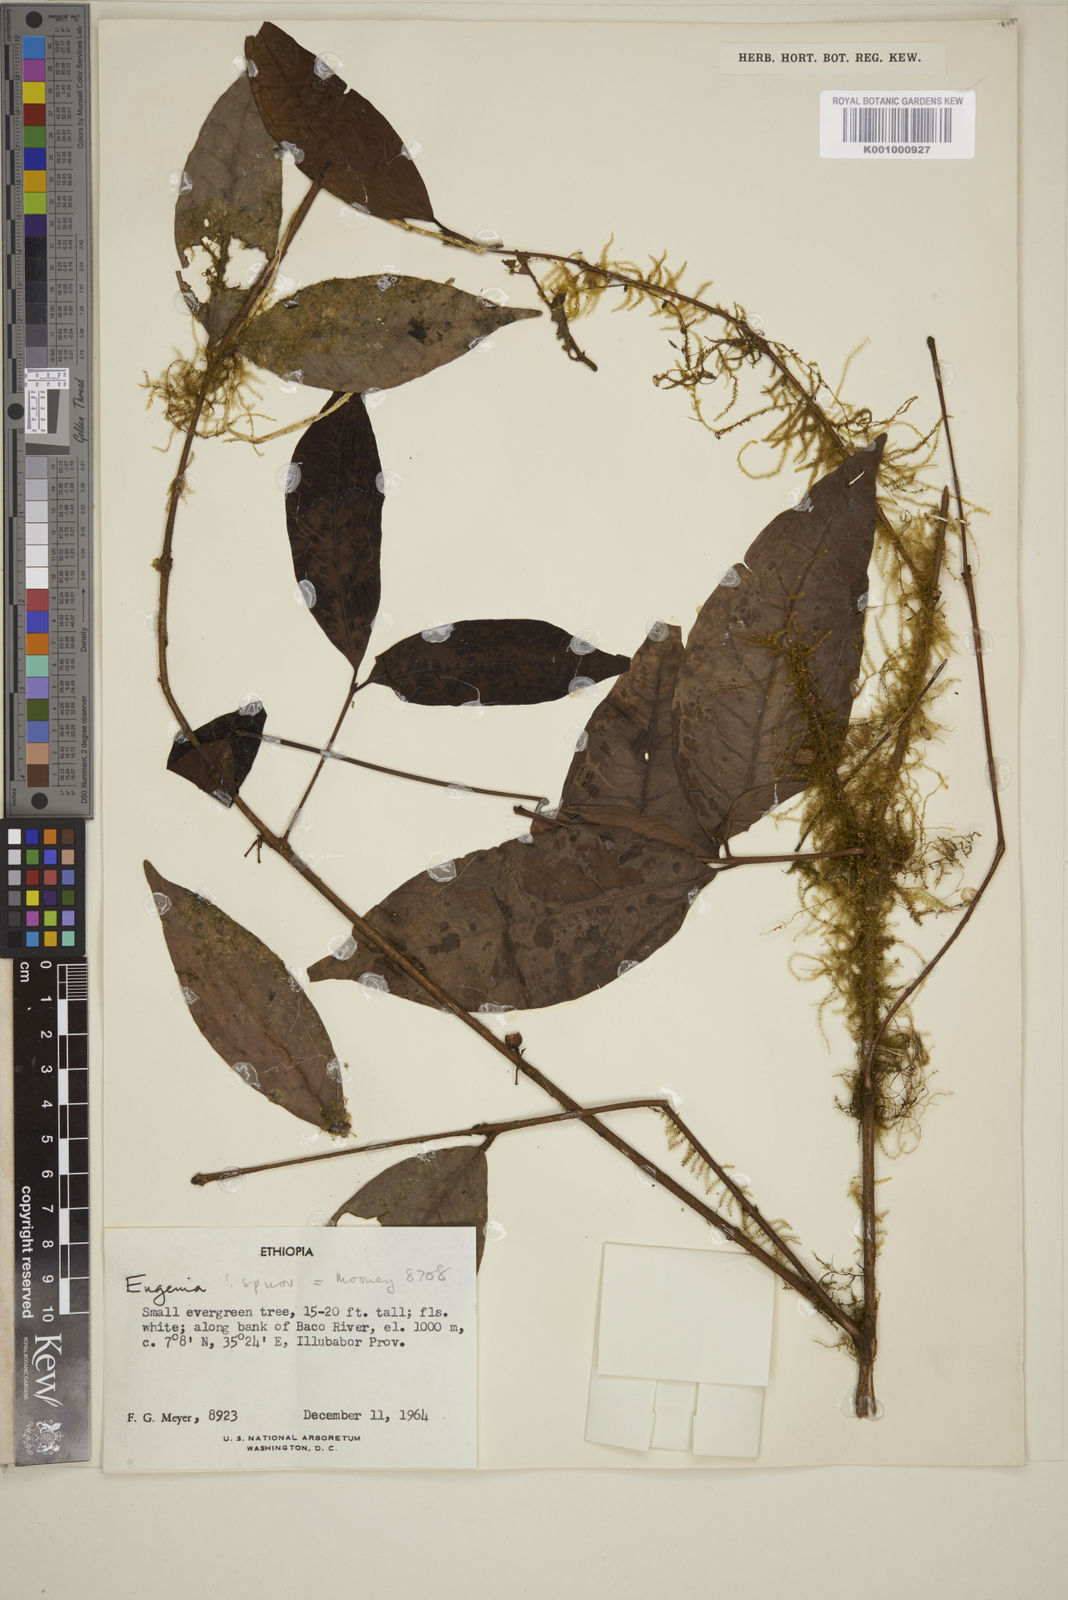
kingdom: Plantae
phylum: Tracheophyta
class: Magnoliopsida
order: Myrtales
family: Myrtaceae
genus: Eugenia
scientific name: Eugenia bukobensis
